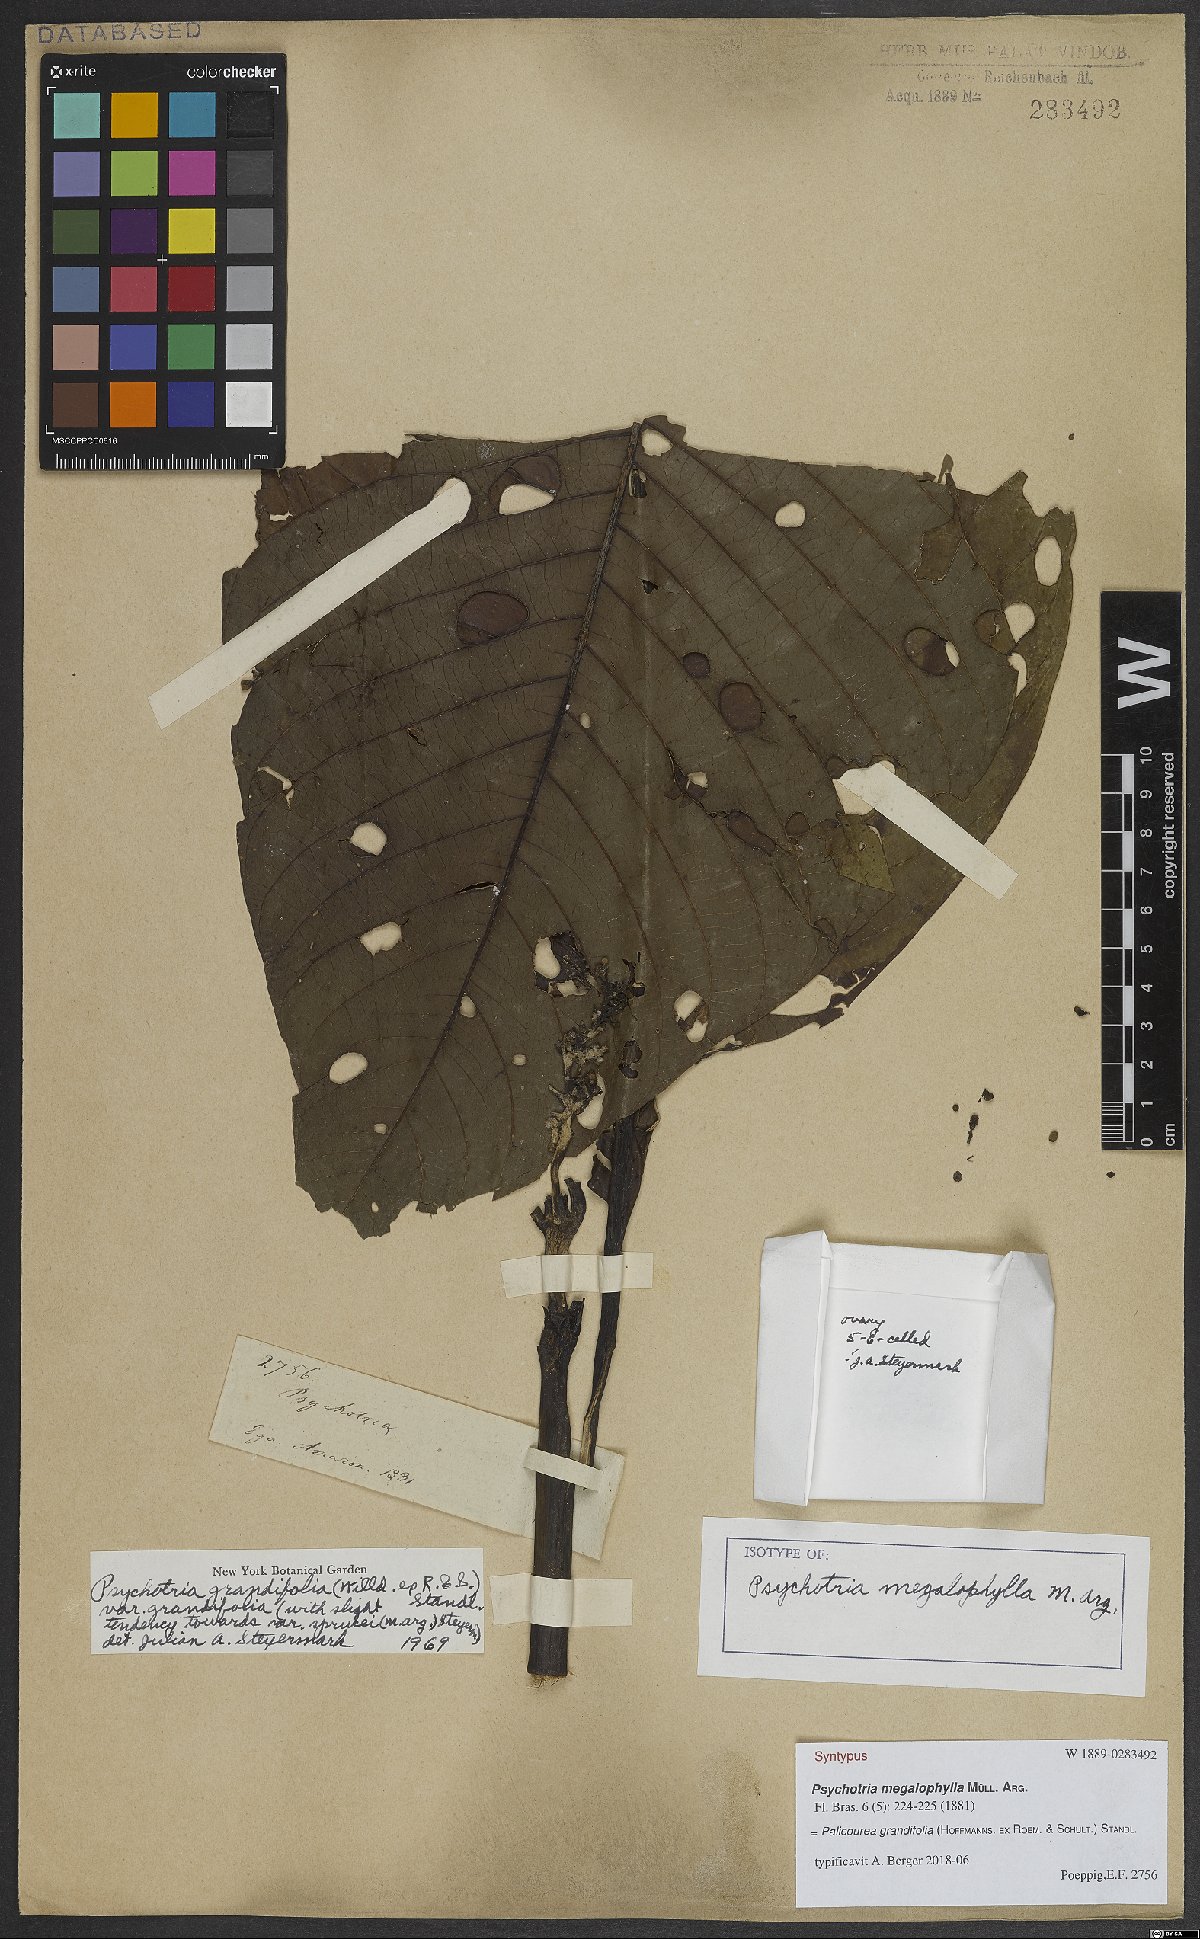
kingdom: Plantae
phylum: Tracheophyta
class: Magnoliopsida
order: Gentianales
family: Rubiaceae
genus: Palicourea
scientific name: Palicourea grandifolia
